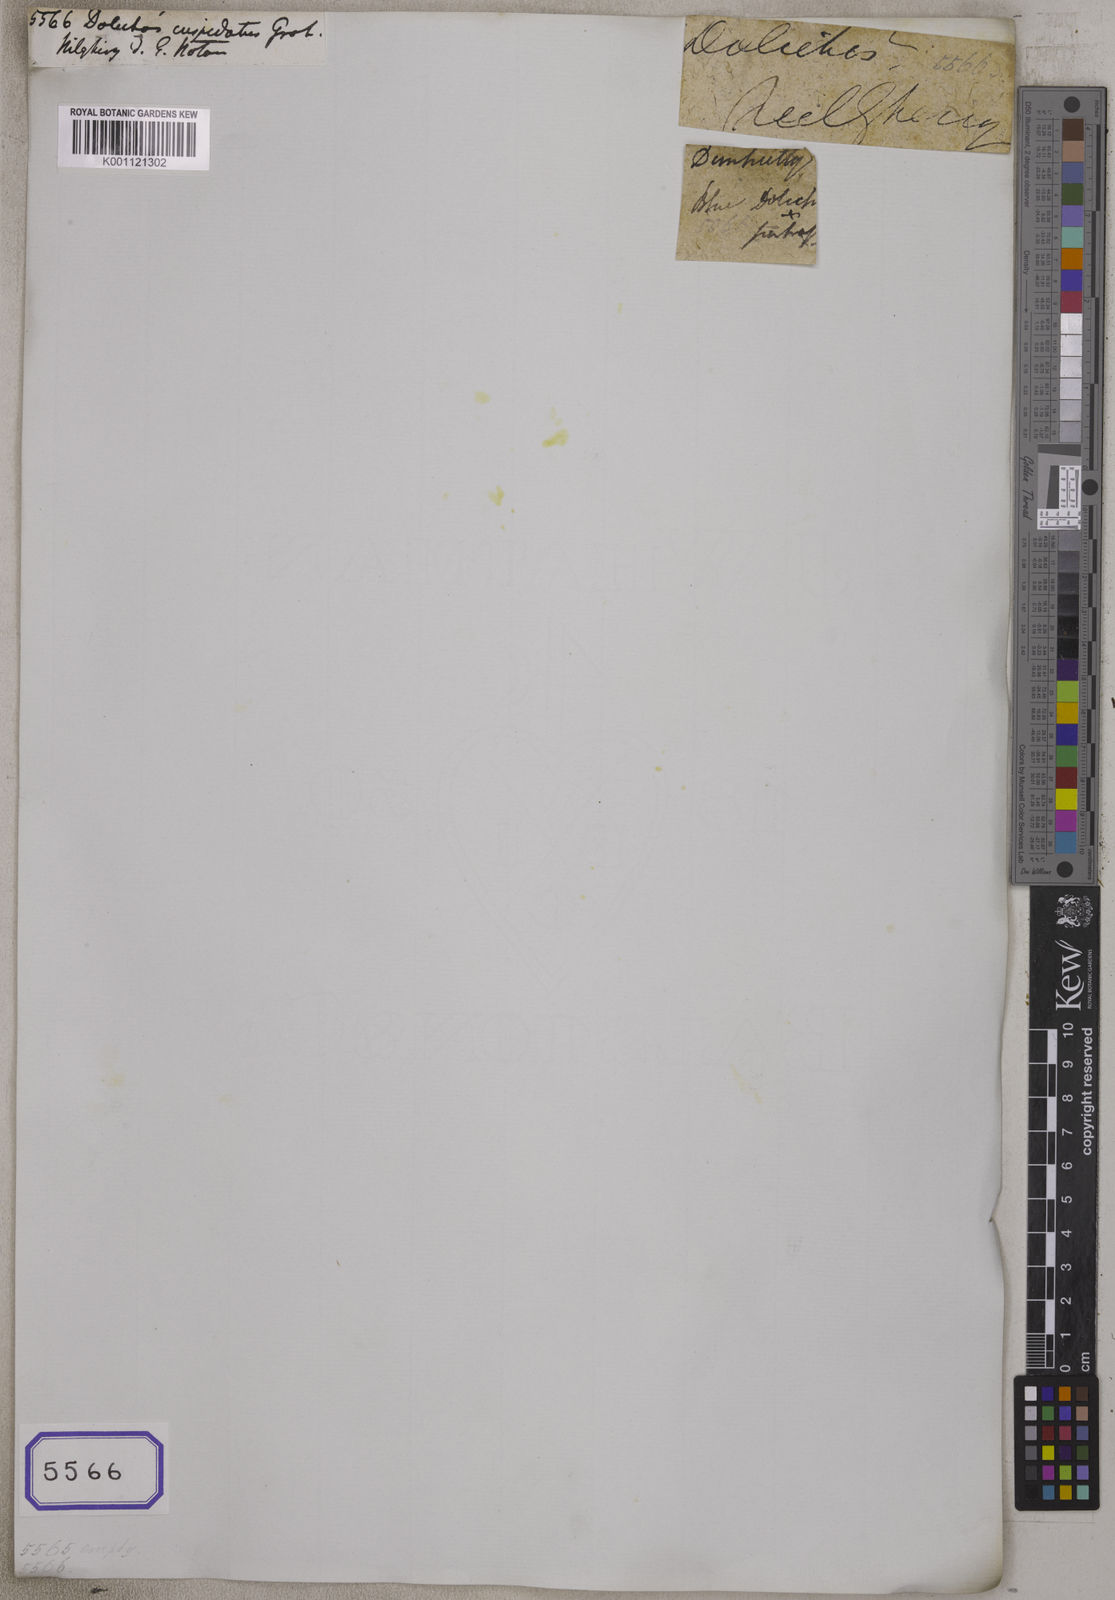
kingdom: Plantae
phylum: Tracheophyta
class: Magnoliopsida
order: Fabales
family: Fabaceae
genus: Dolichos
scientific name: Dolichos
